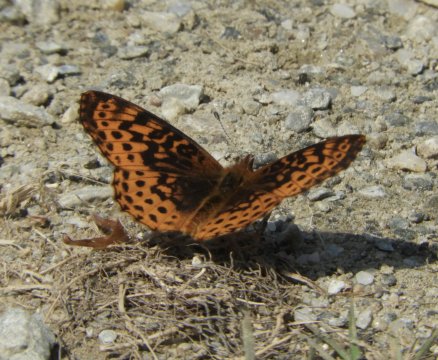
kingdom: Animalia
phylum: Arthropoda
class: Insecta
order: Lepidoptera
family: Nymphalidae
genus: Clossiana
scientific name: Clossiana toddi
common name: Meadow Fritillary
